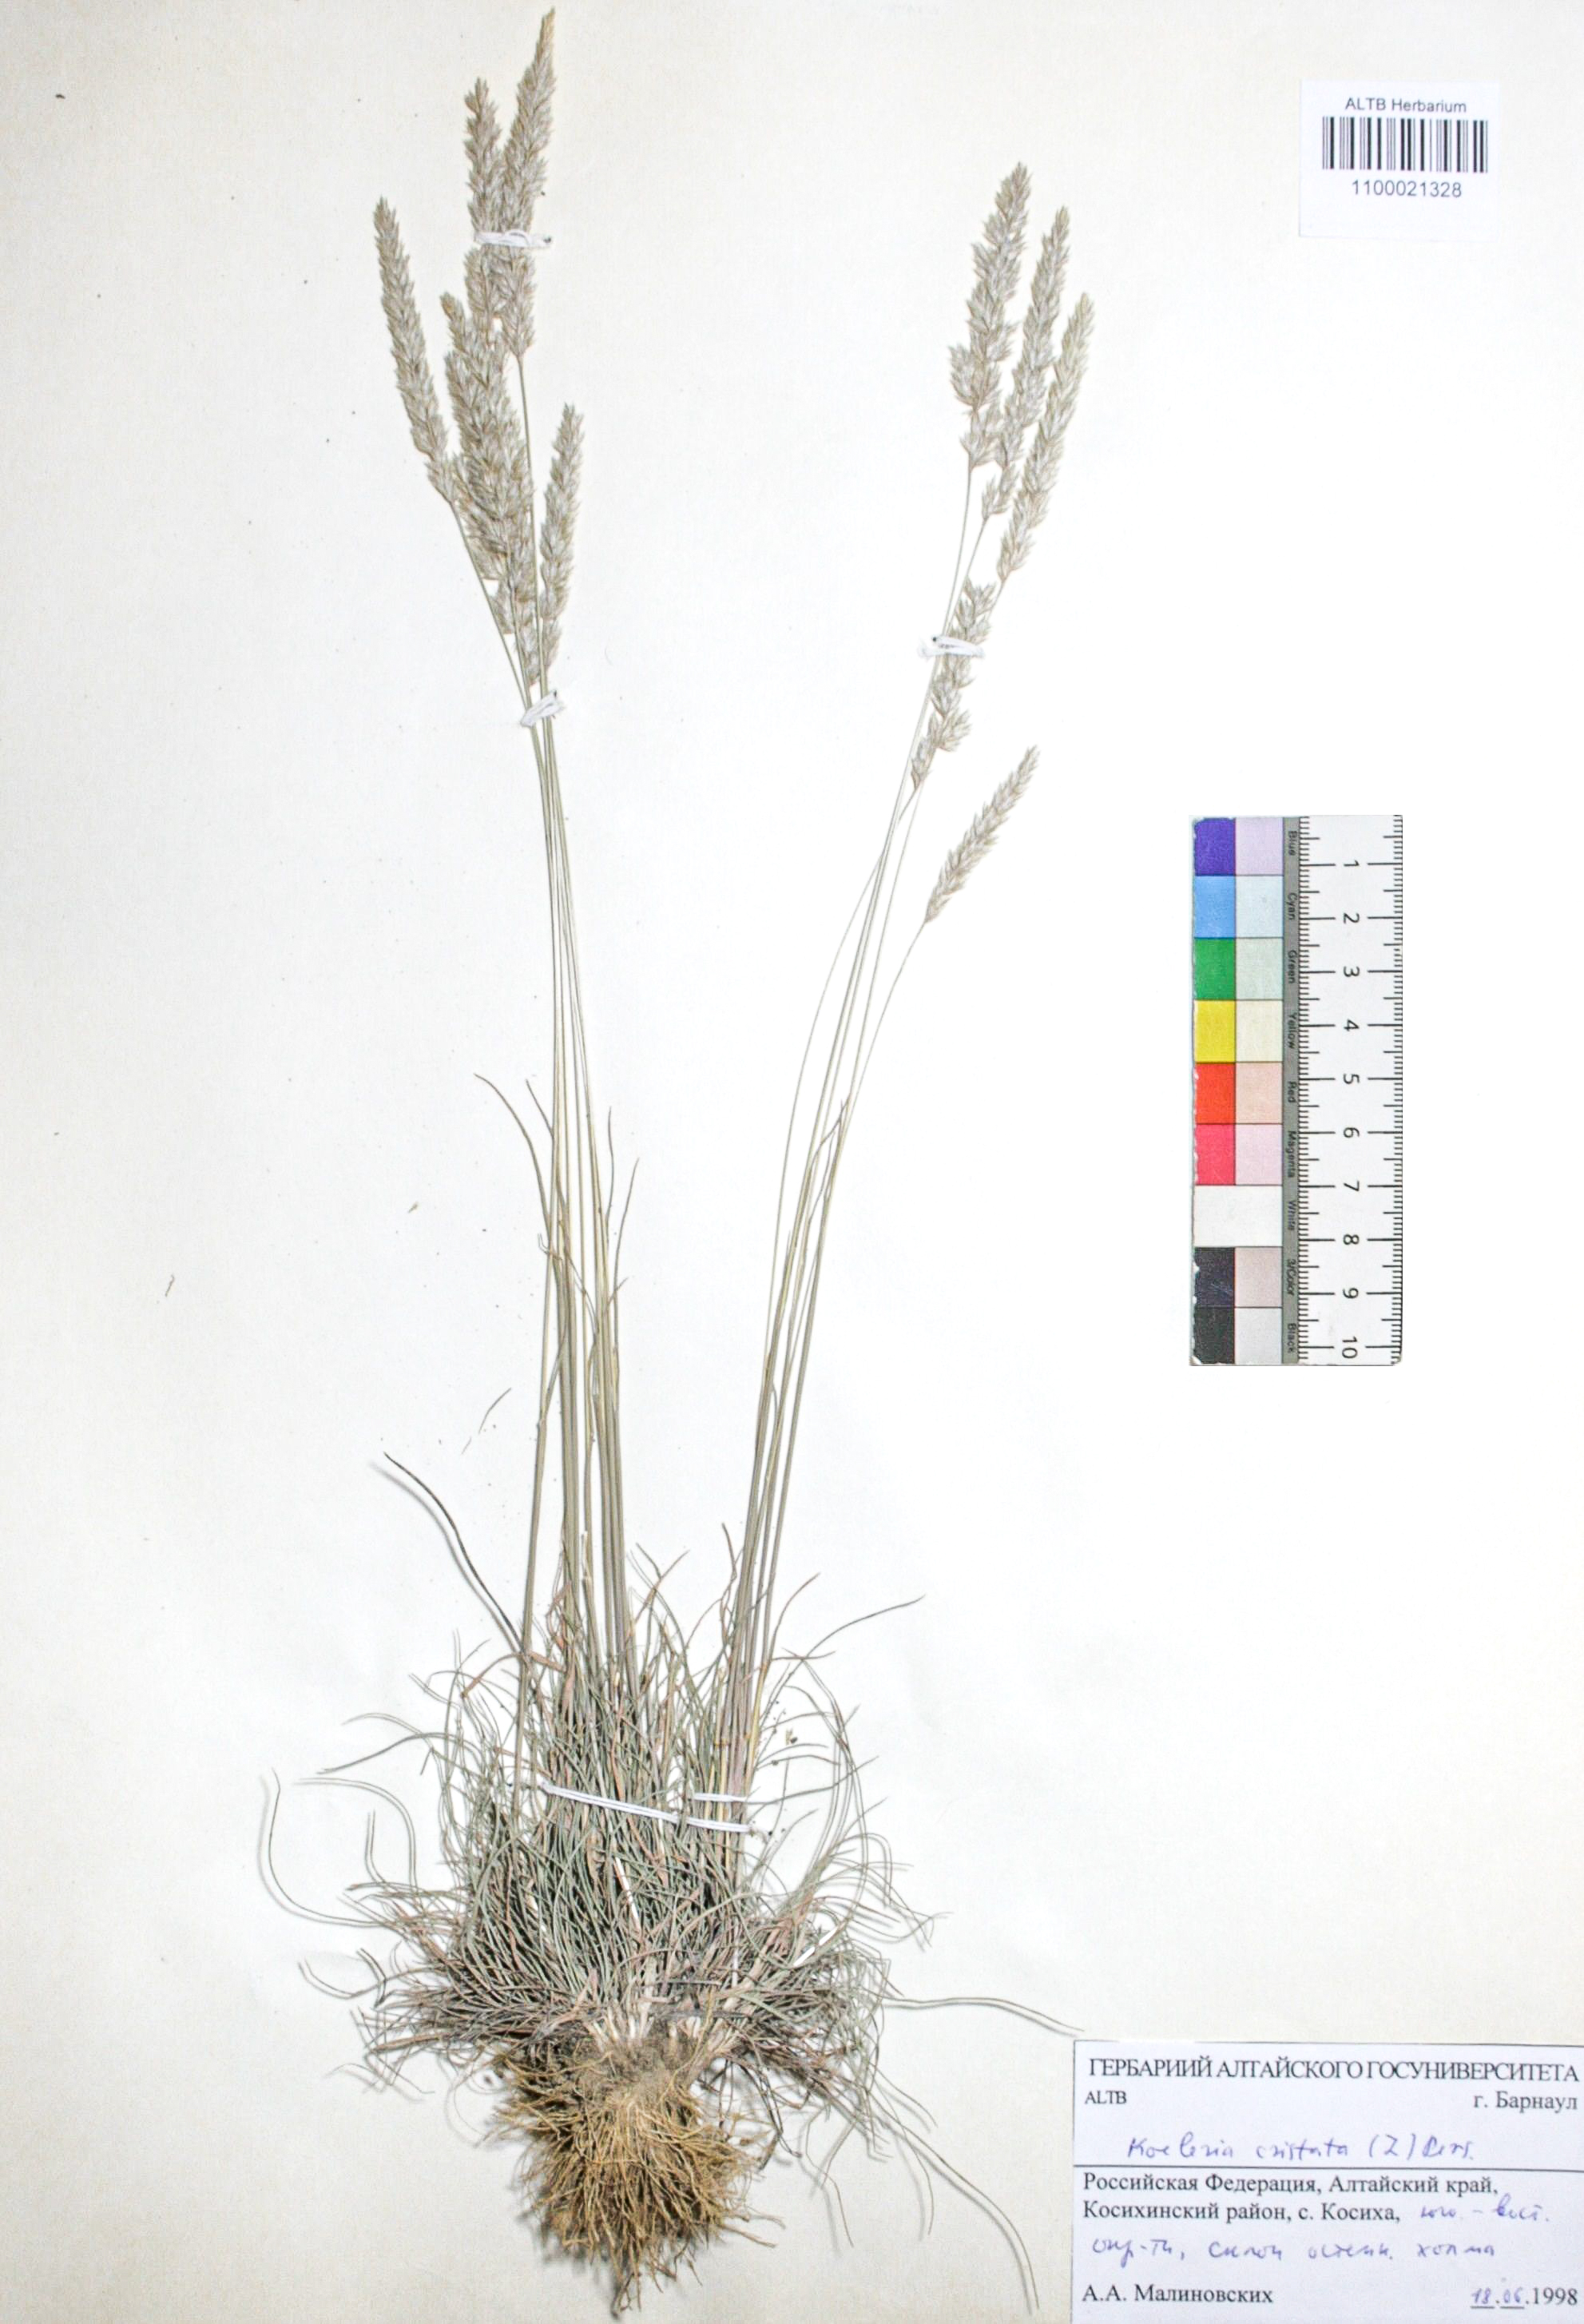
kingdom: Plantae
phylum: Tracheophyta
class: Liliopsida
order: Poales
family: Poaceae
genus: Koeleria
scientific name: Koeleria pyramidata
